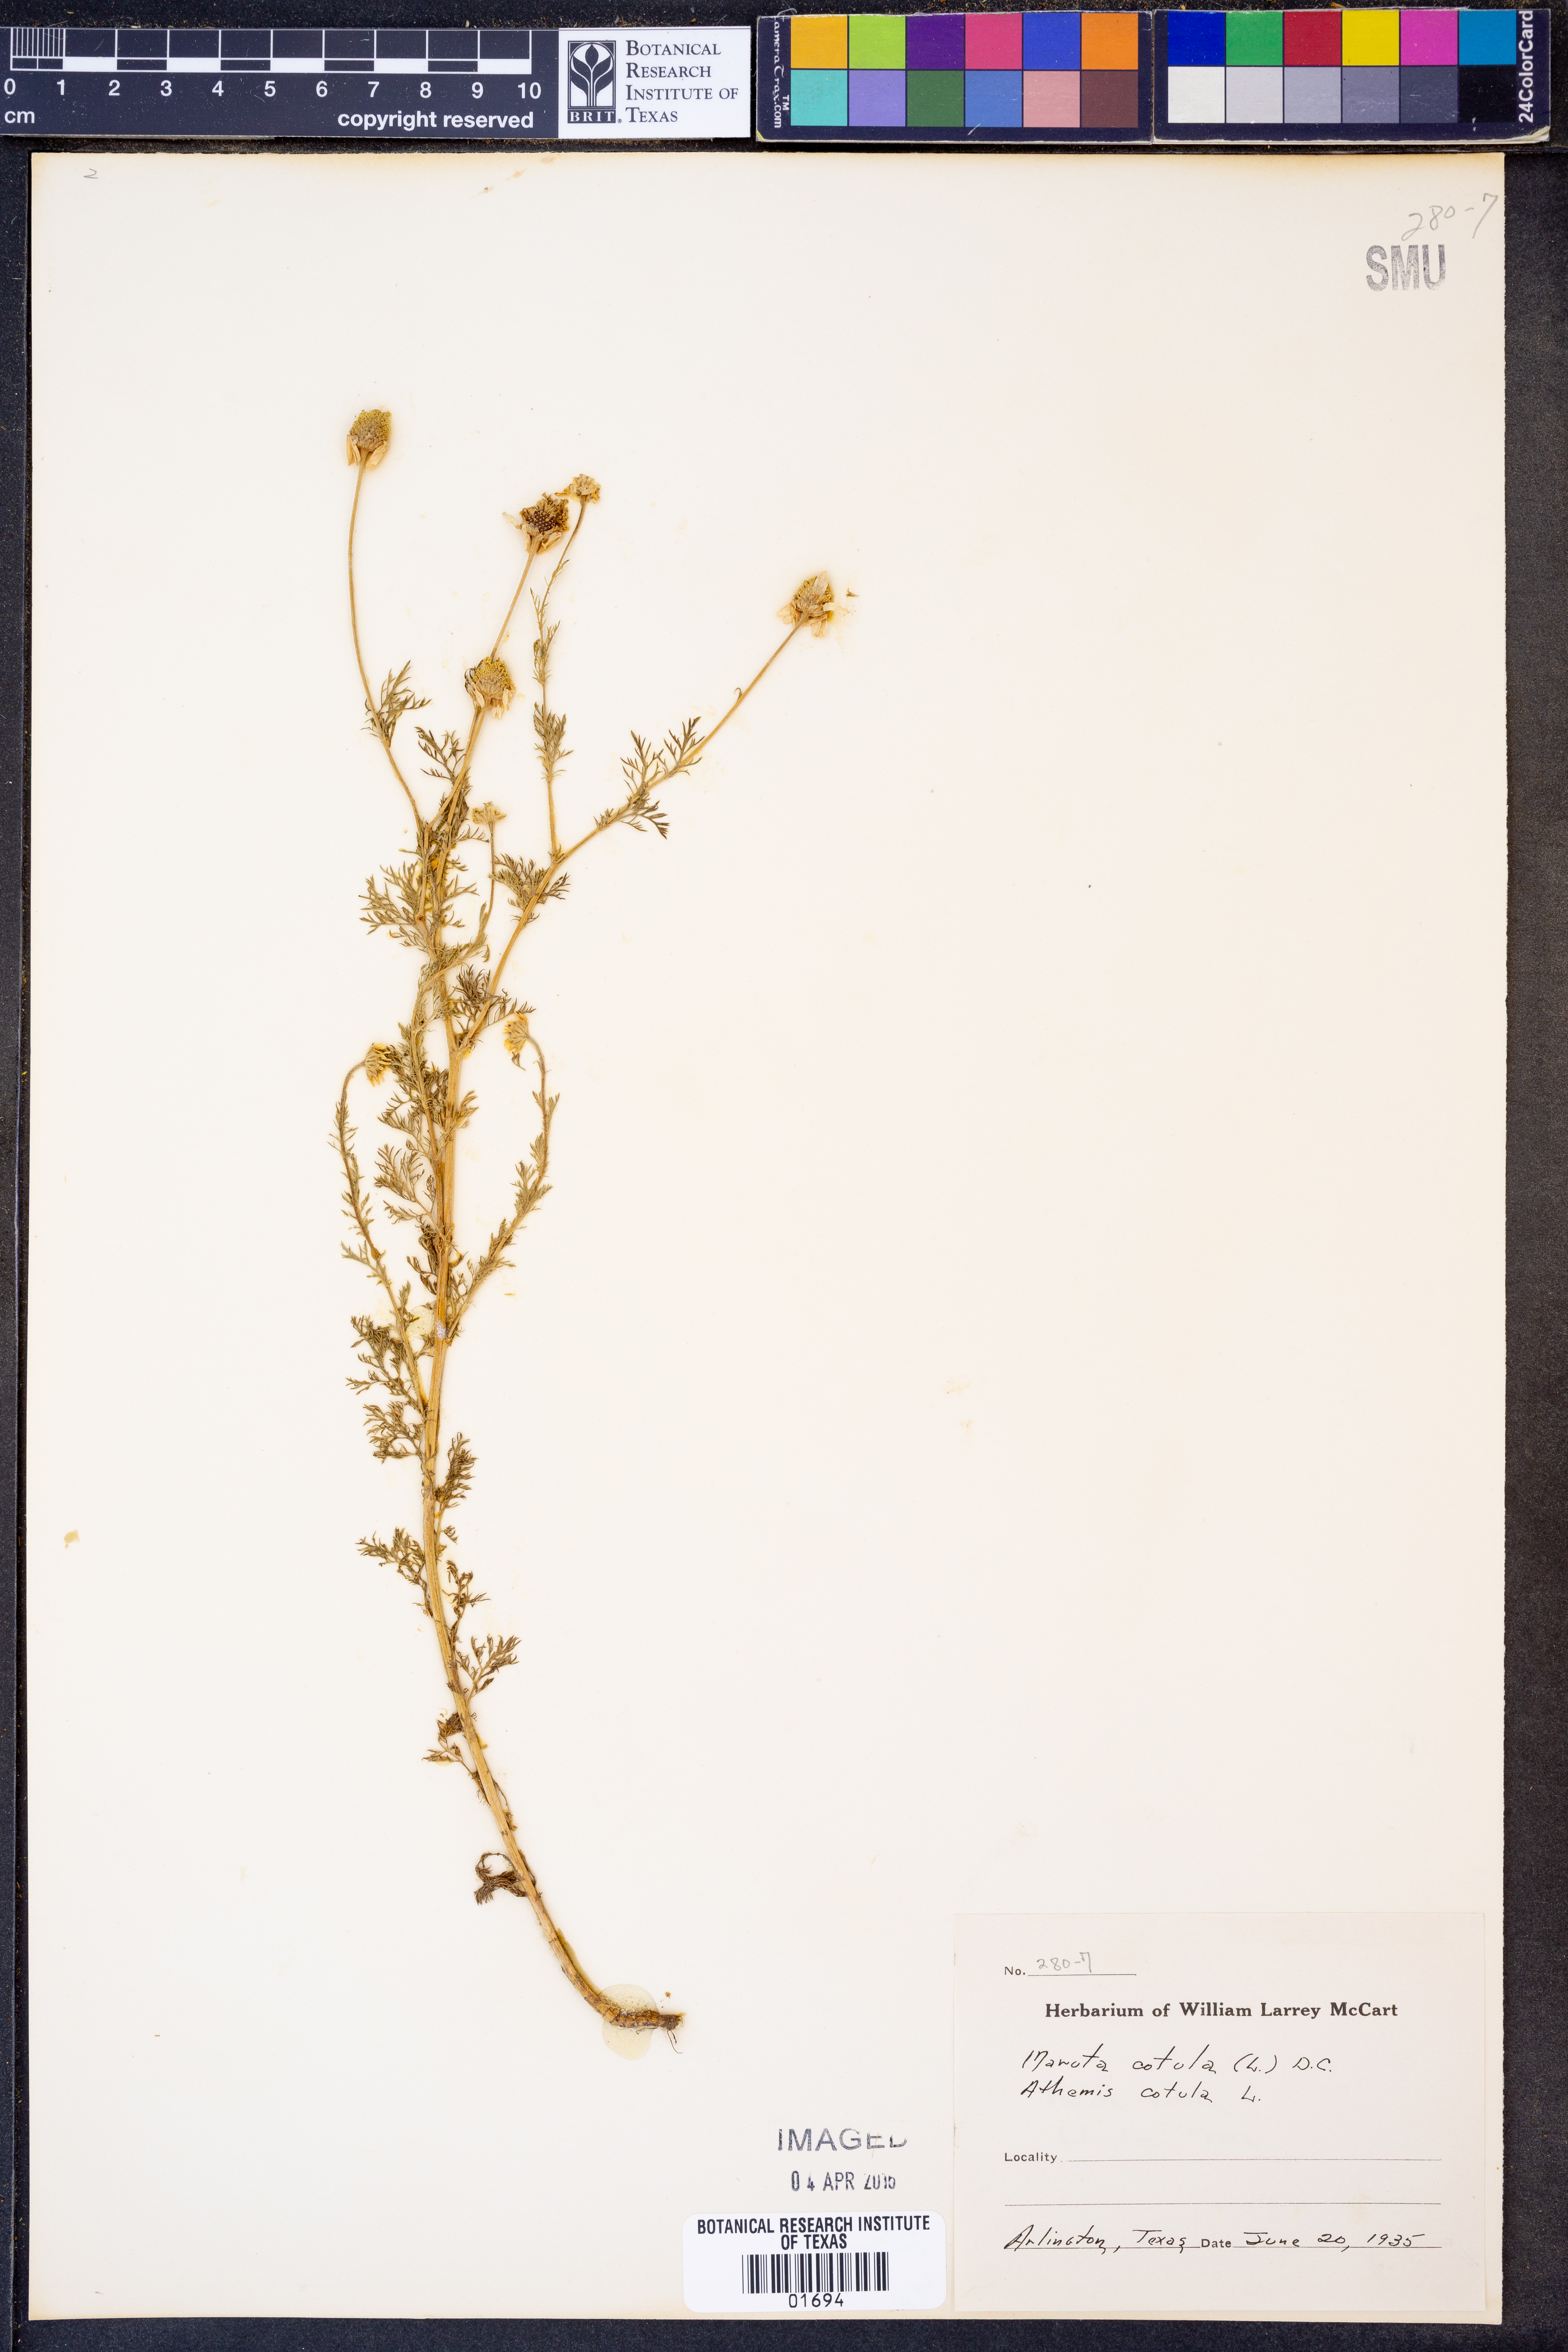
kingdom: Plantae
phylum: Tracheophyta
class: Magnoliopsida
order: Asterales
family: Asteraceae
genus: Anthemis
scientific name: Anthemis cotula
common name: Stinking chamomile
